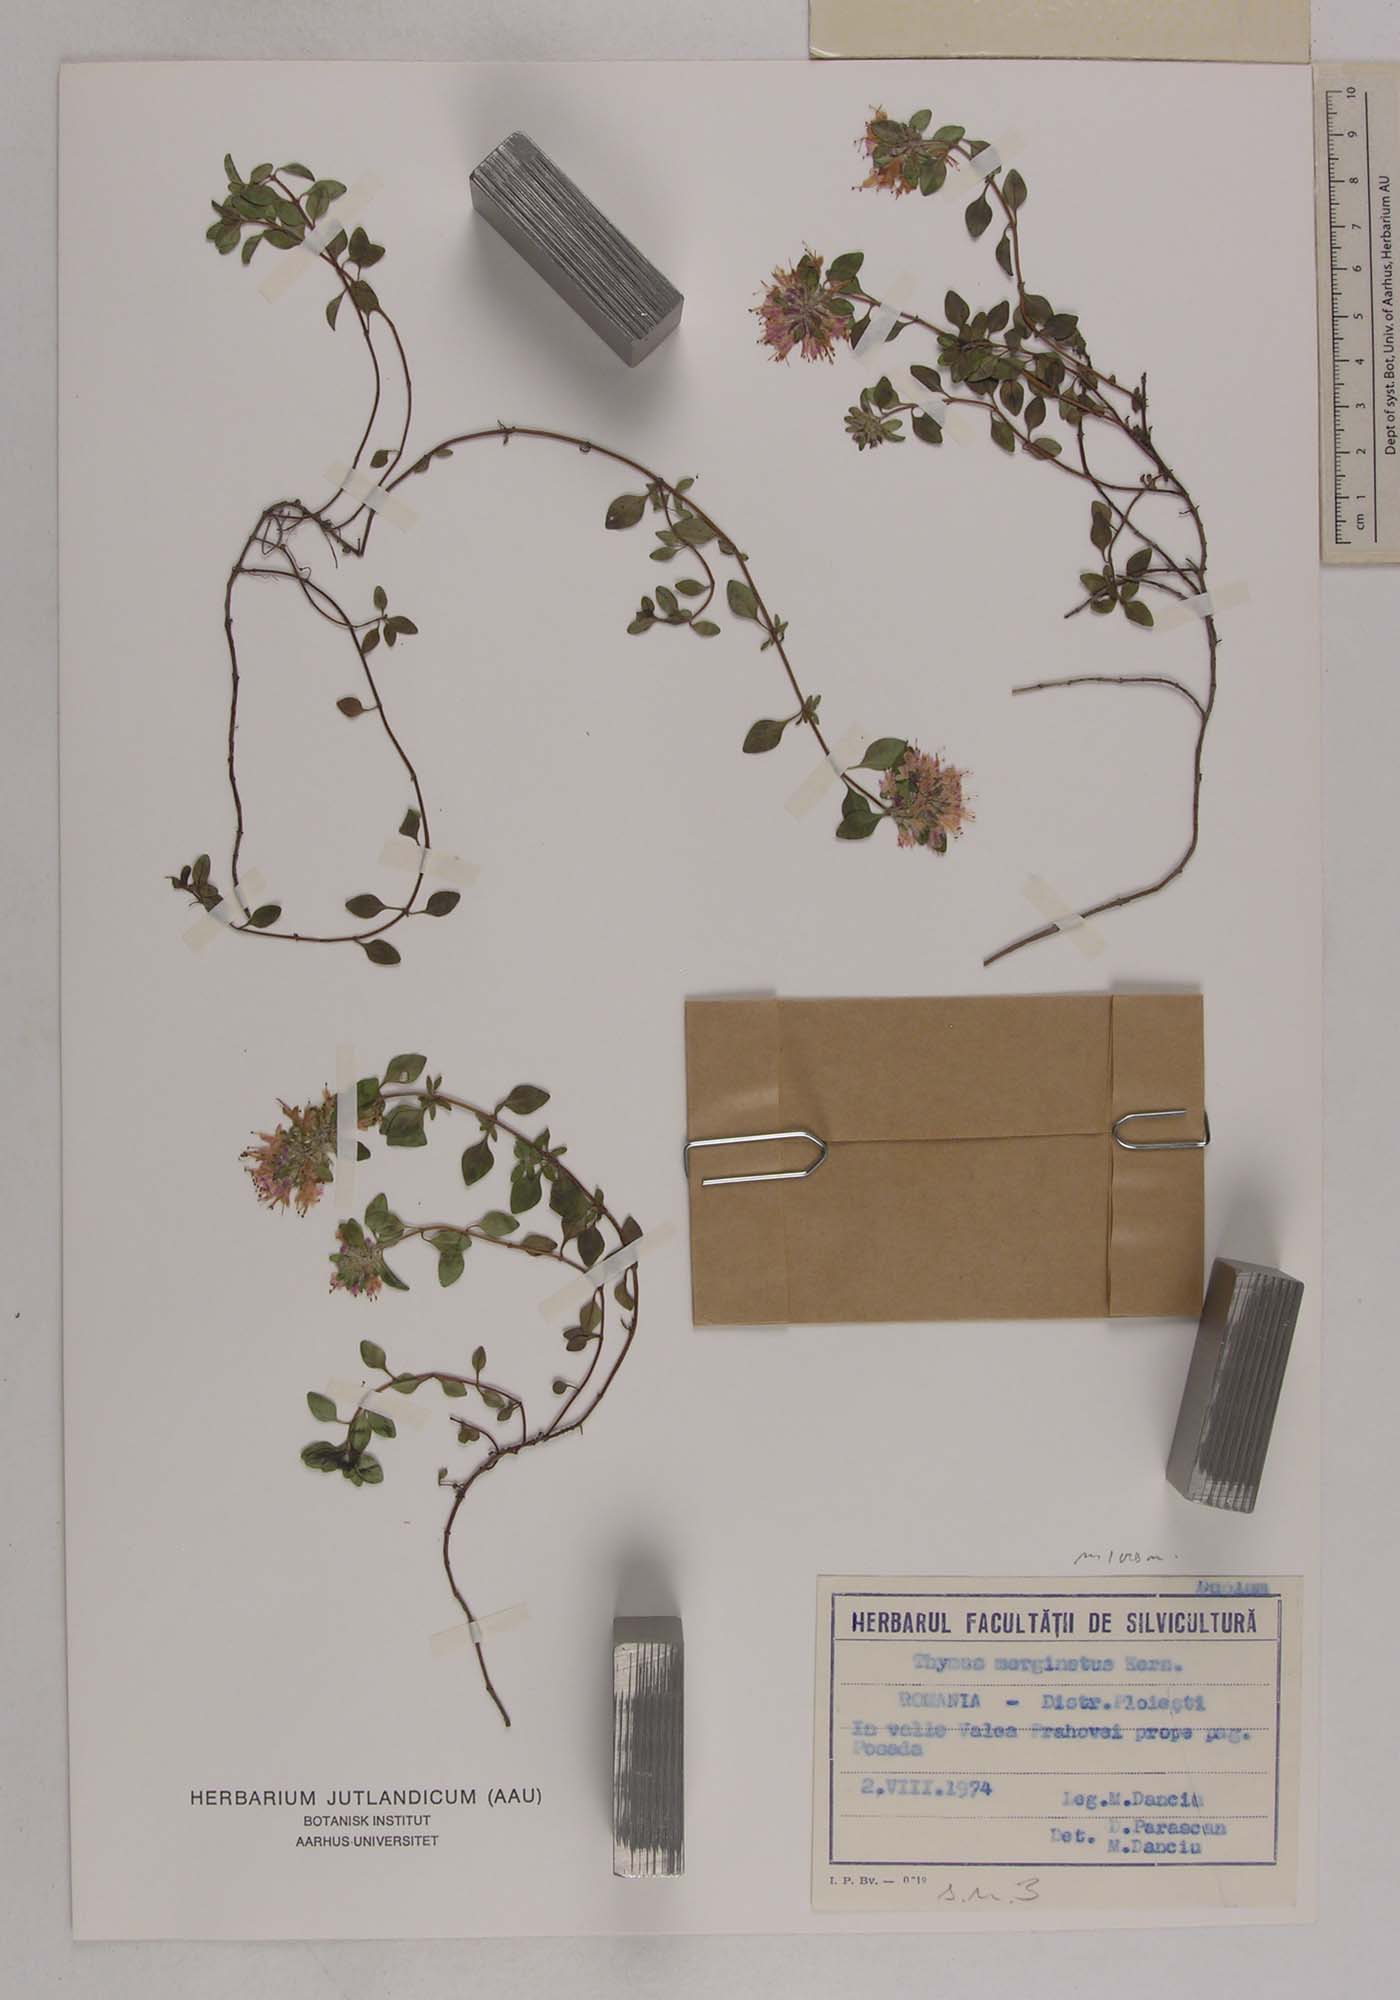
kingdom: Plantae
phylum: Tracheophyta
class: Magnoliopsida
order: Lamiales
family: Lamiaceae
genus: Thymus
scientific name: Thymus bihoriensis
